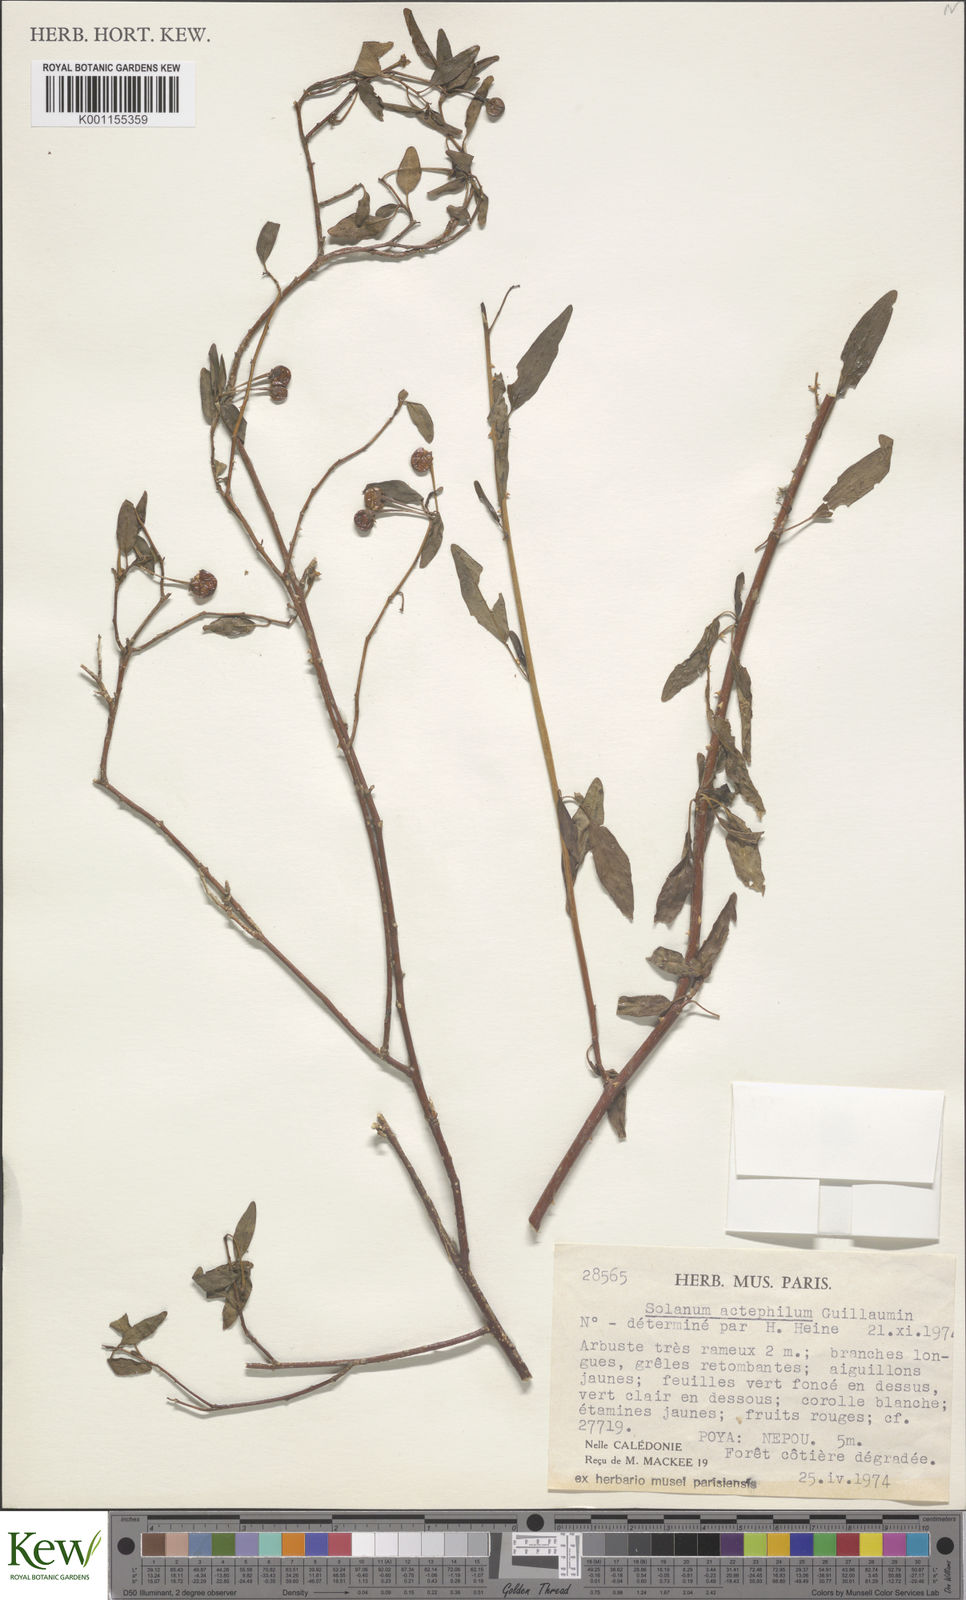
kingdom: Plantae
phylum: Tracheophyta
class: Magnoliopsida
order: Solanales
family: Solanaceae
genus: Solanum
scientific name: Solanum actephilum
